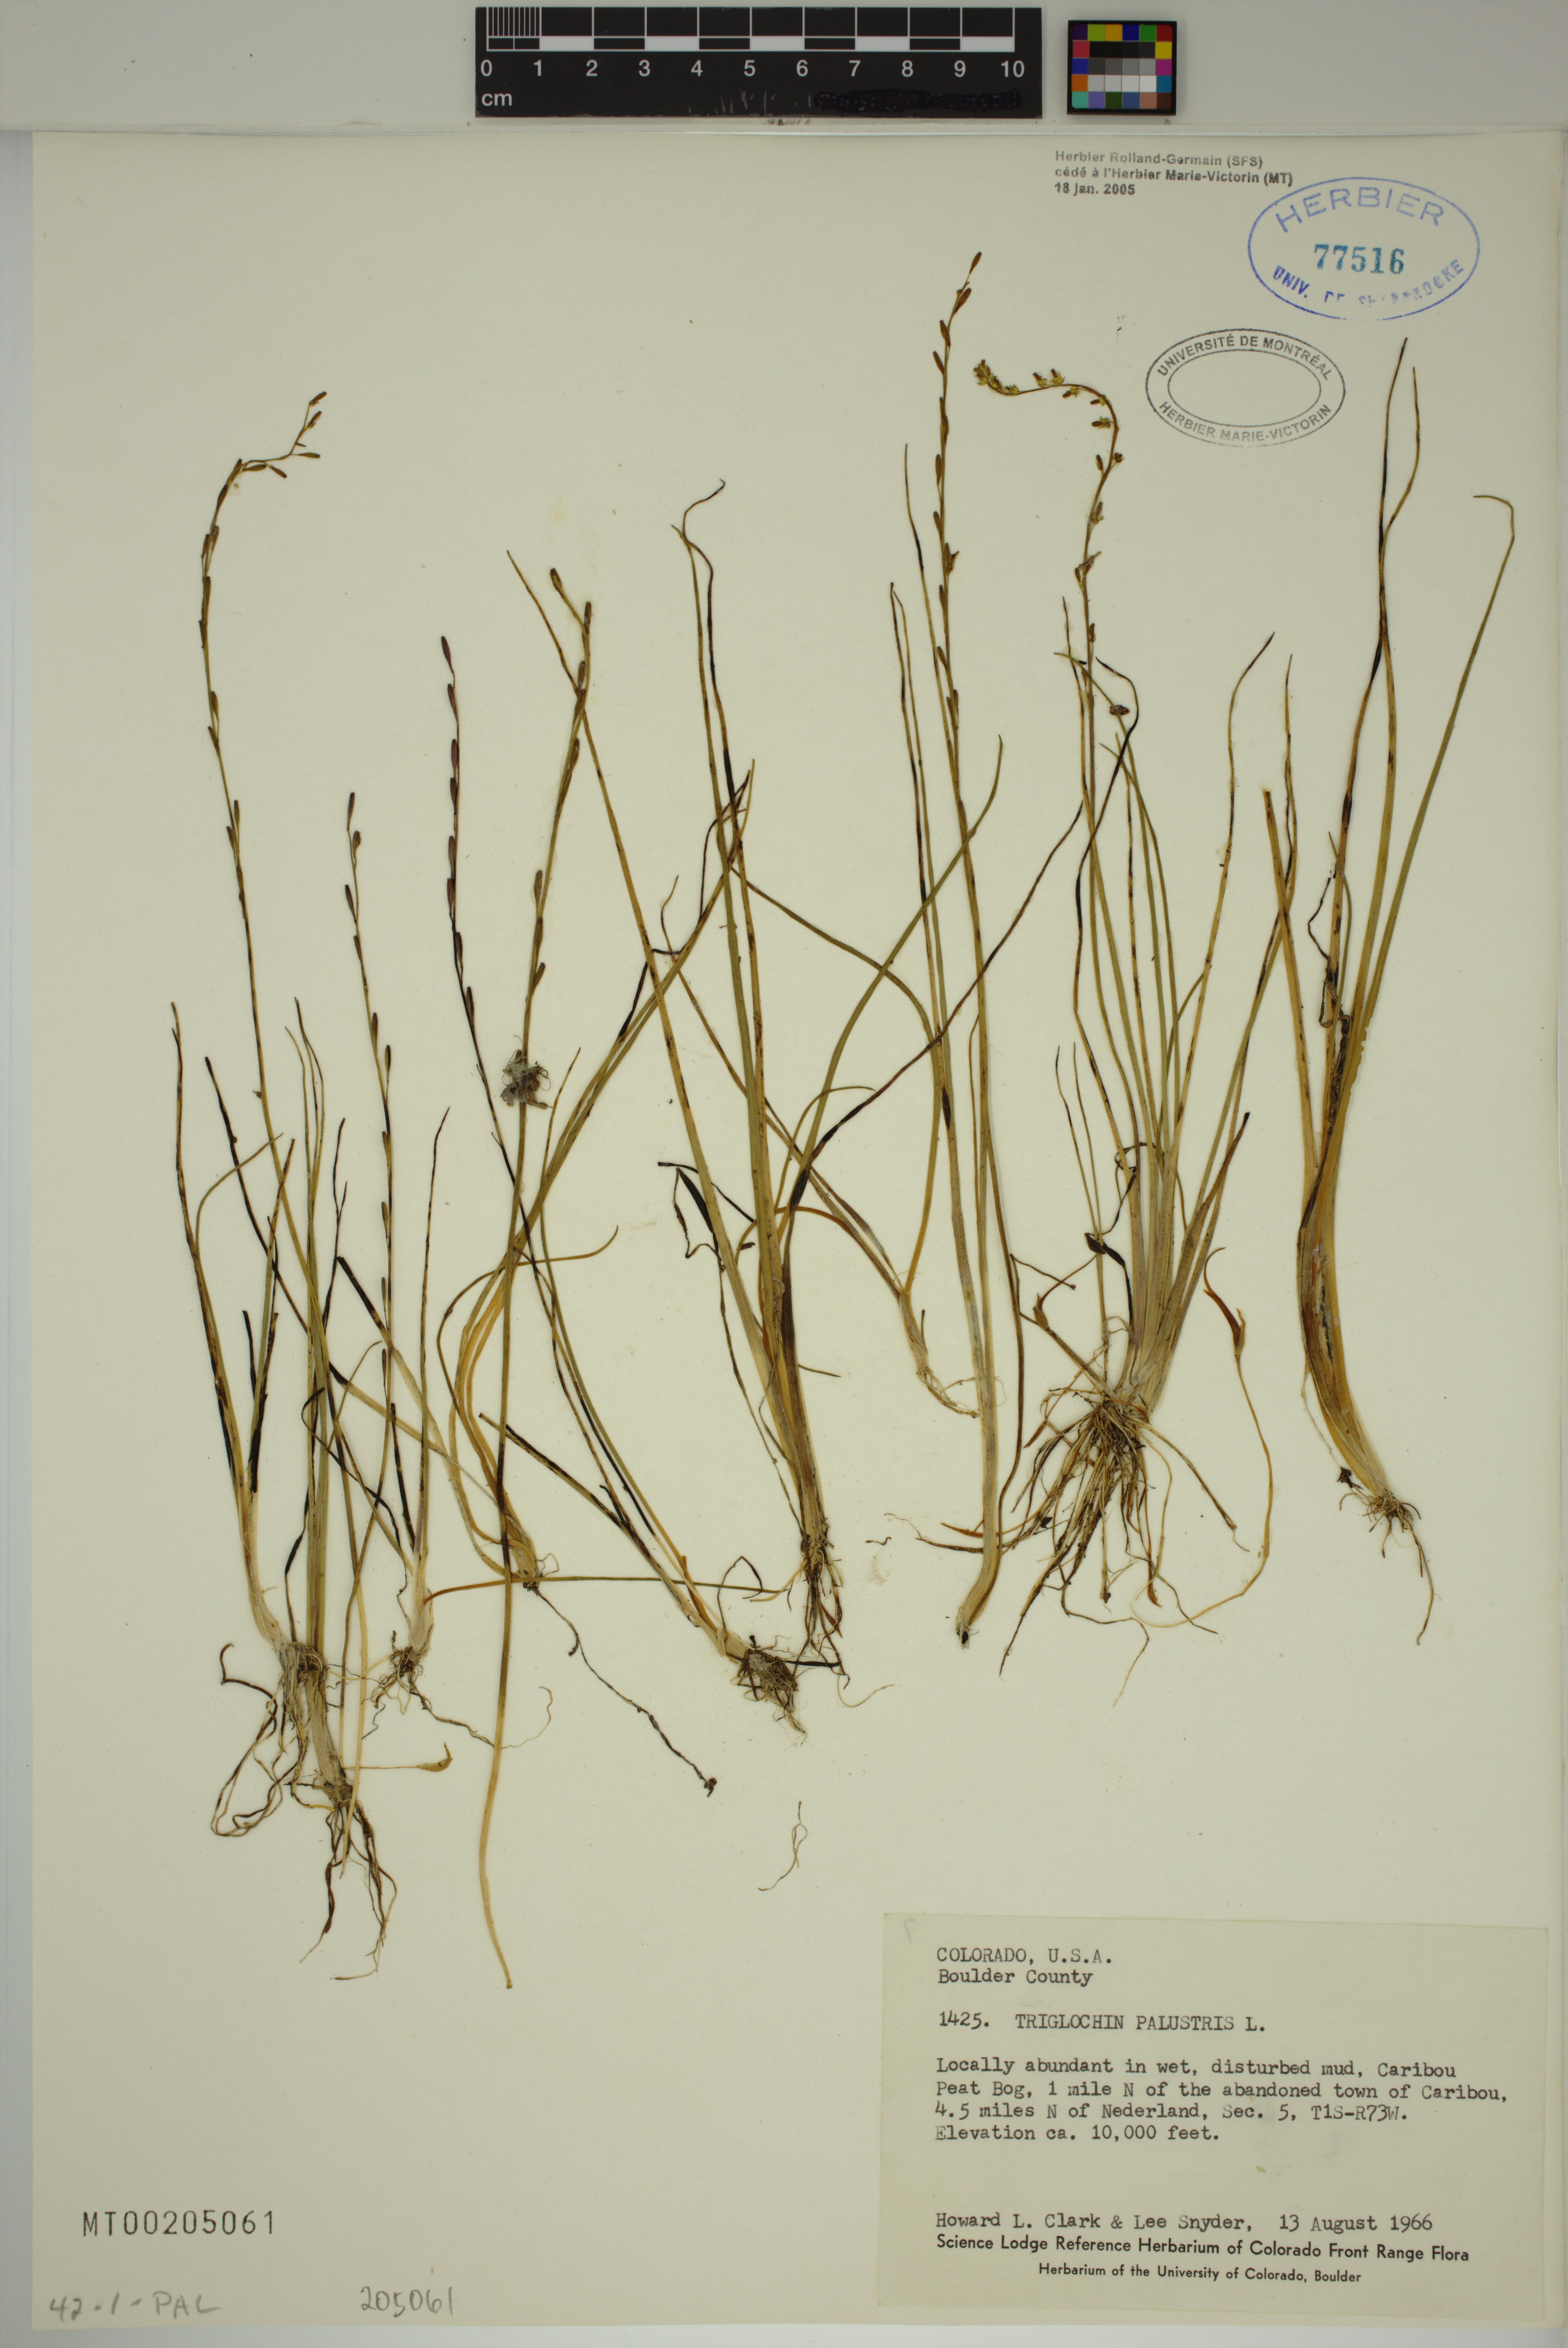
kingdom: Plantae
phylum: Tracheophyta
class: Liliopsida
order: Alismatales
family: Juncaginaceae
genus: Triglochin
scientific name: Triglochin palustris
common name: Marsh arrowgrass
